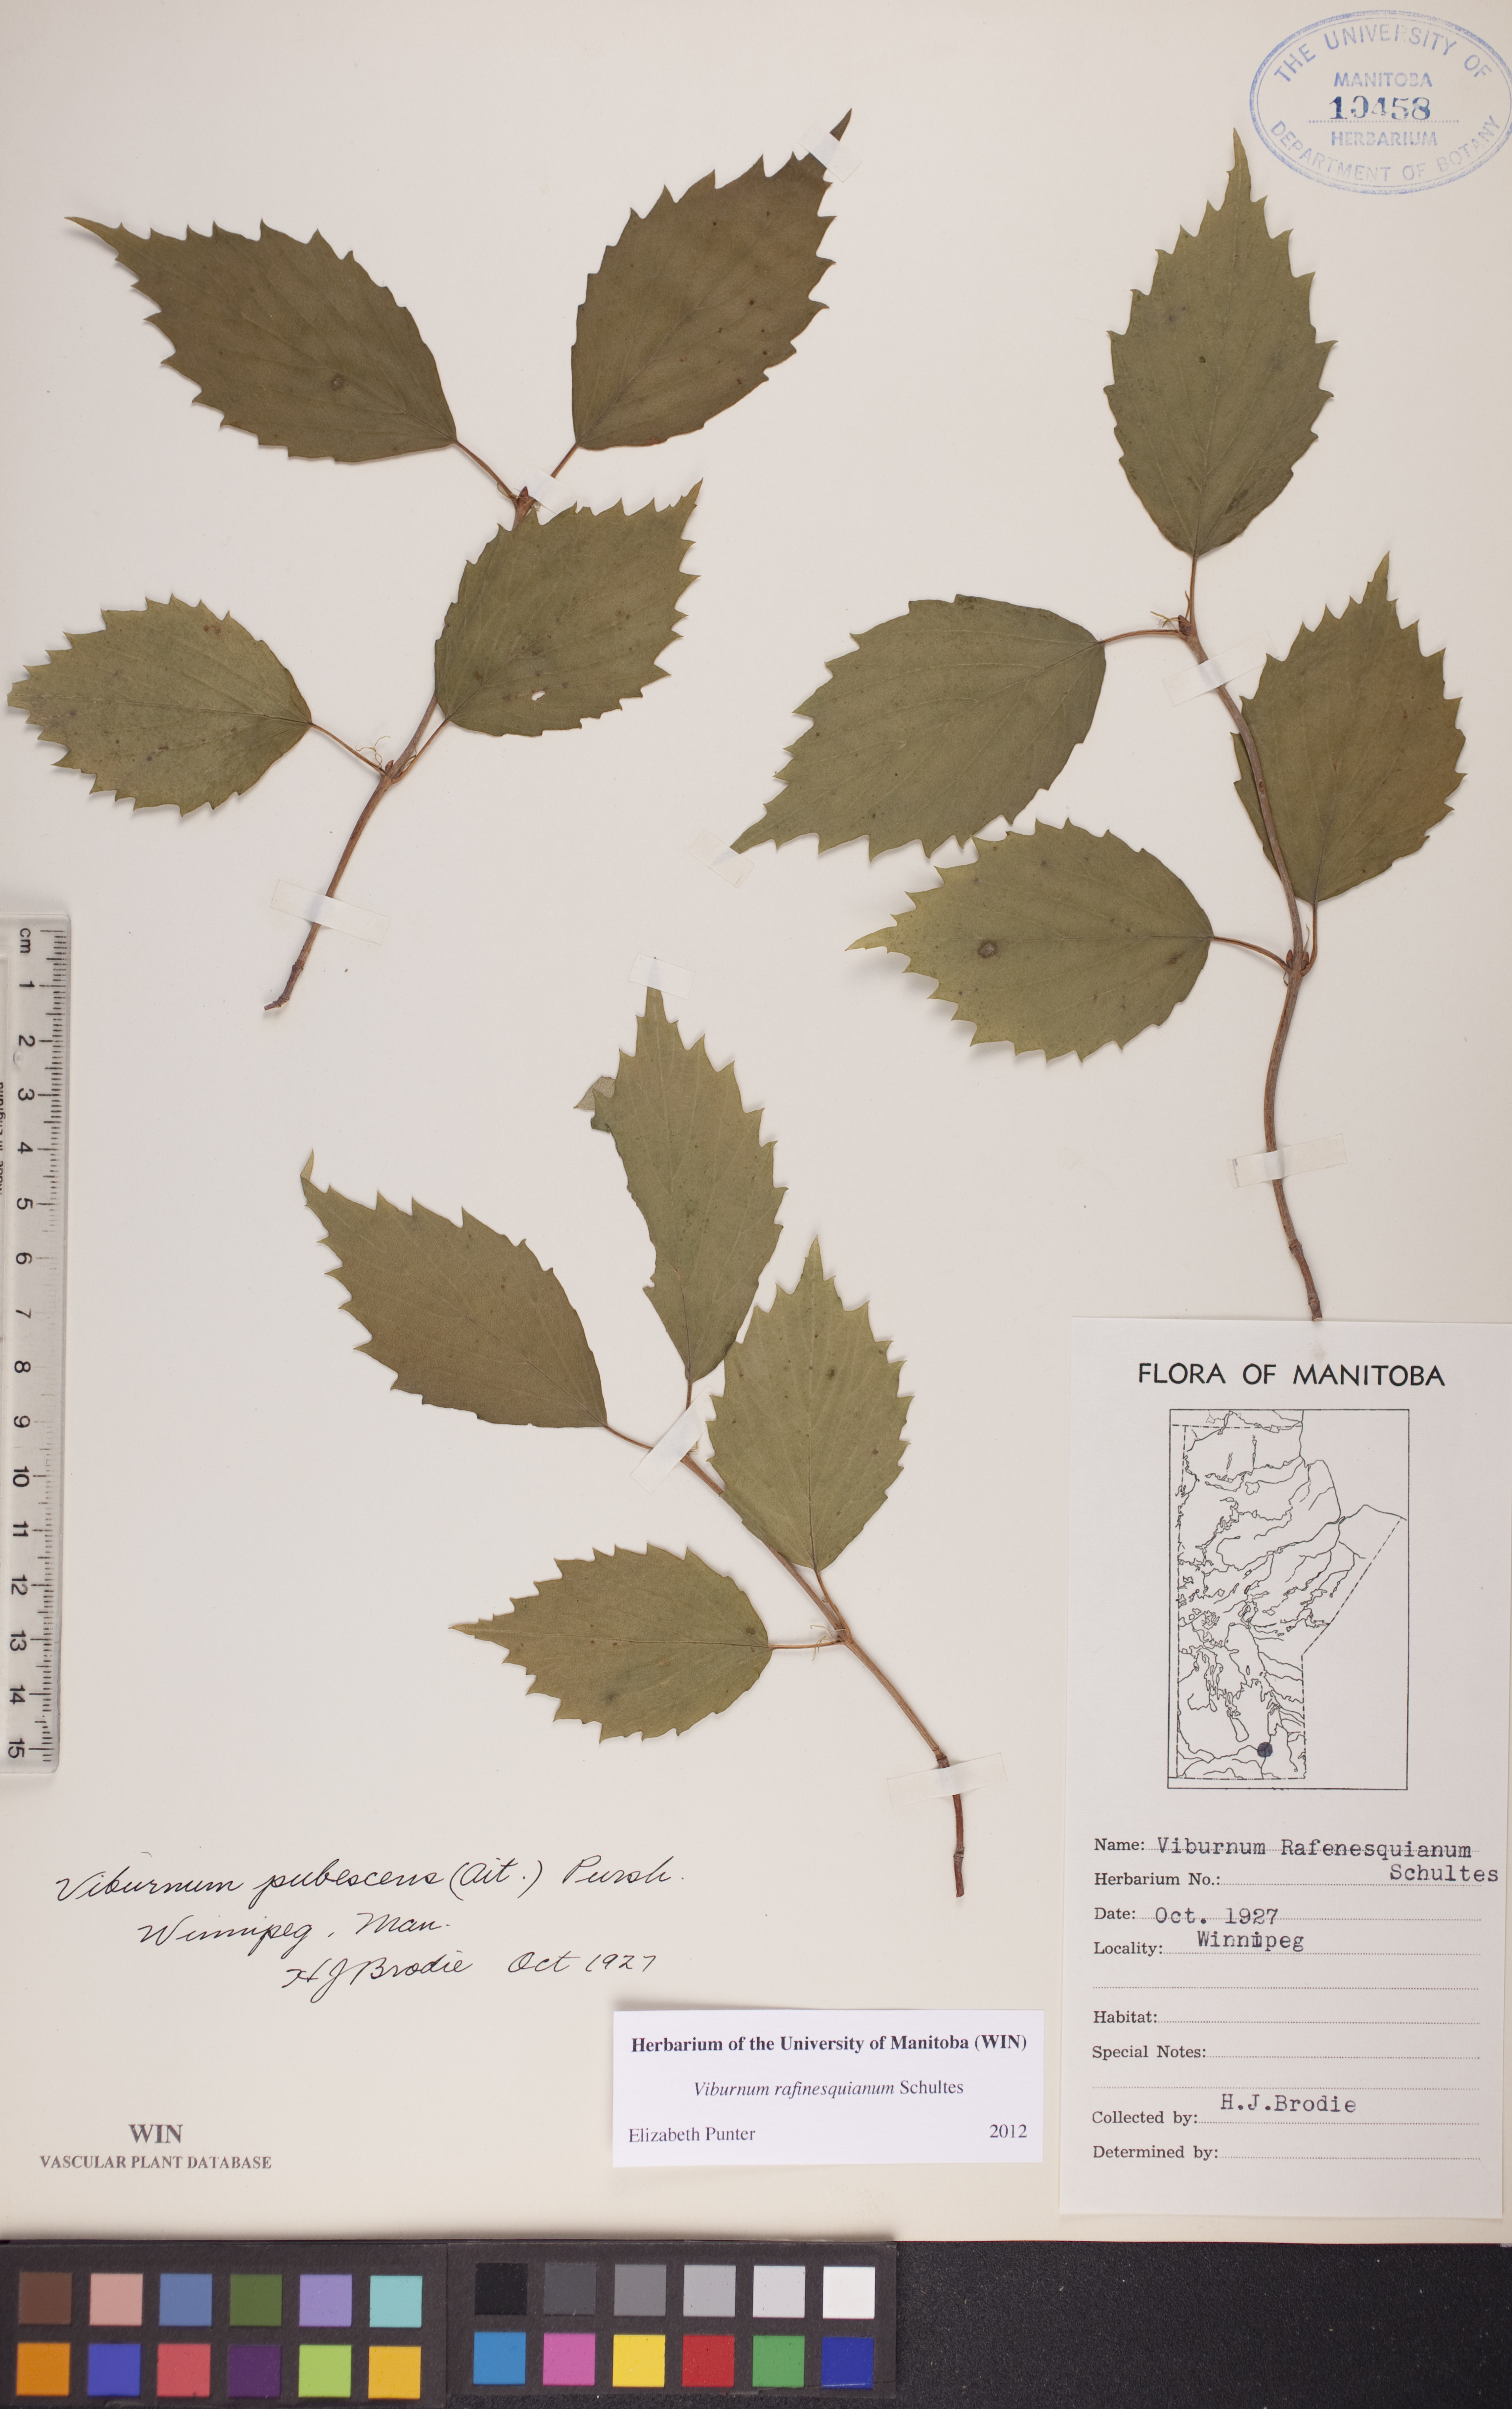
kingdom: Plantae
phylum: Tracheophyta
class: Magnoliopsida
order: Dipsacales
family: Viburnaceae
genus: Viburnum
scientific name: Viburnum rafinesquianum
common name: Downy arrow-wood
